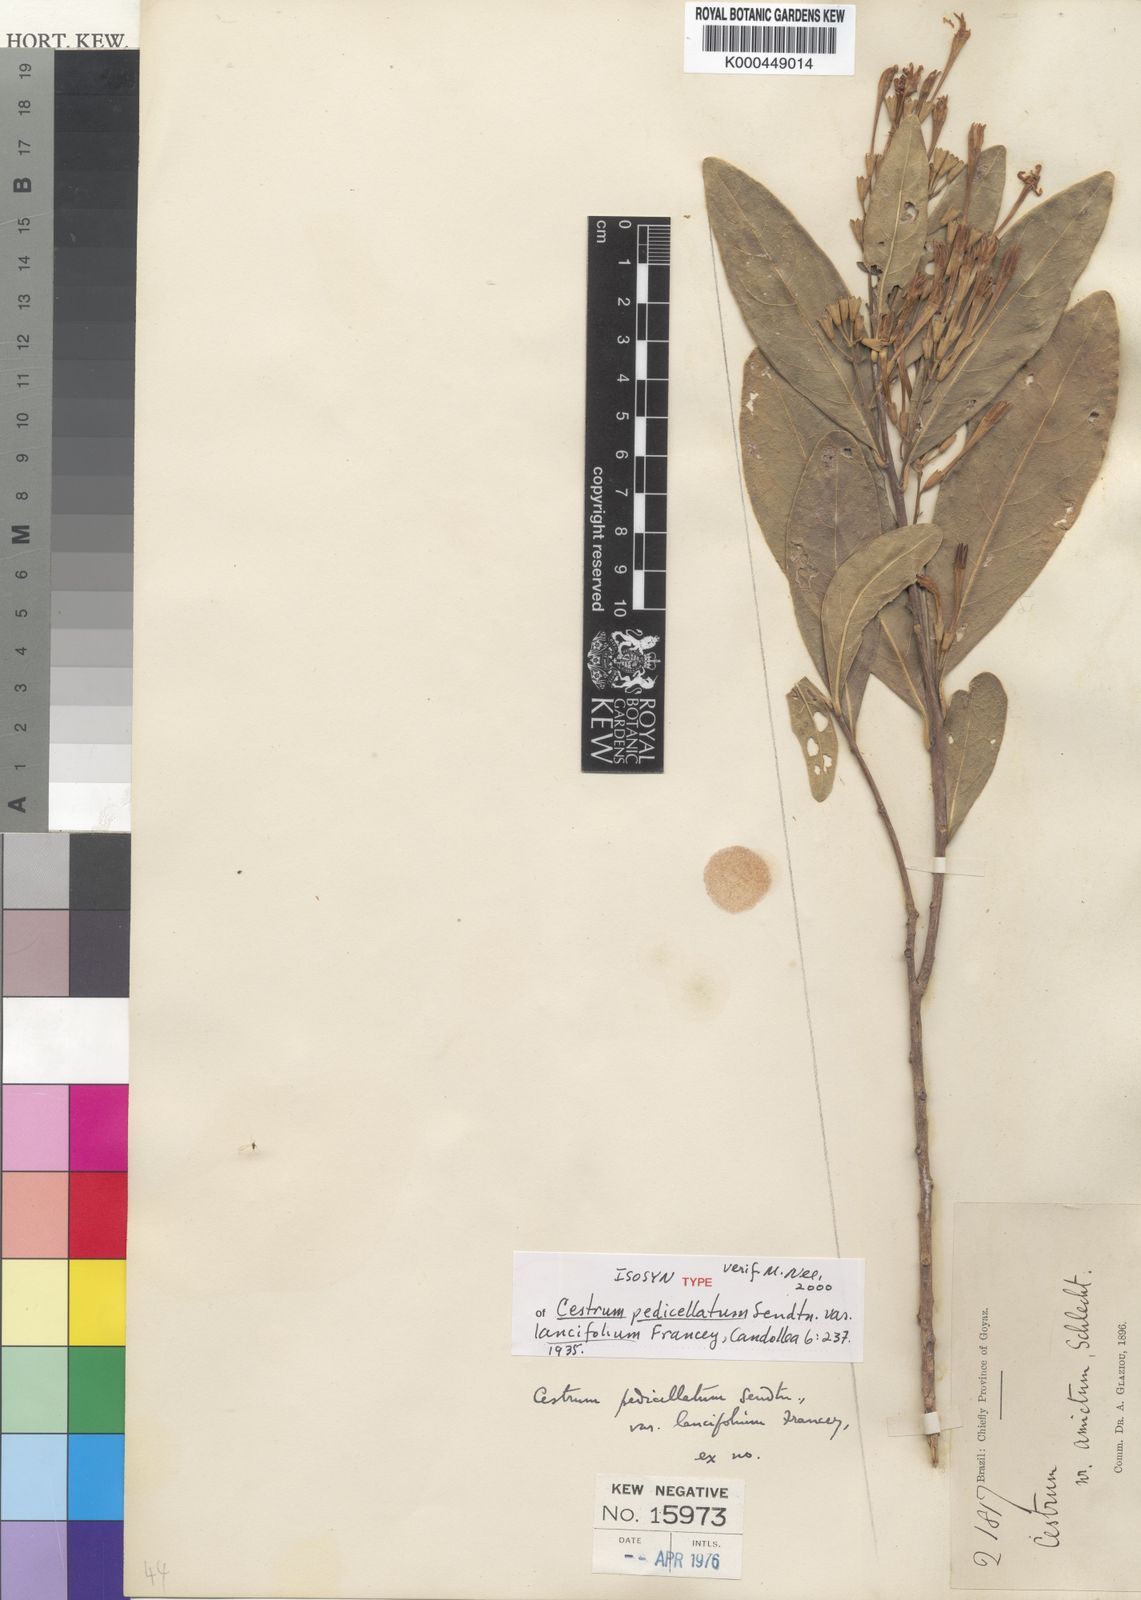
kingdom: Plantae
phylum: Tracheophyta
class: Magnoliopsida
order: Solanales
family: Solanaceae
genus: Cestrum
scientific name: Cestrum pedicellatum
